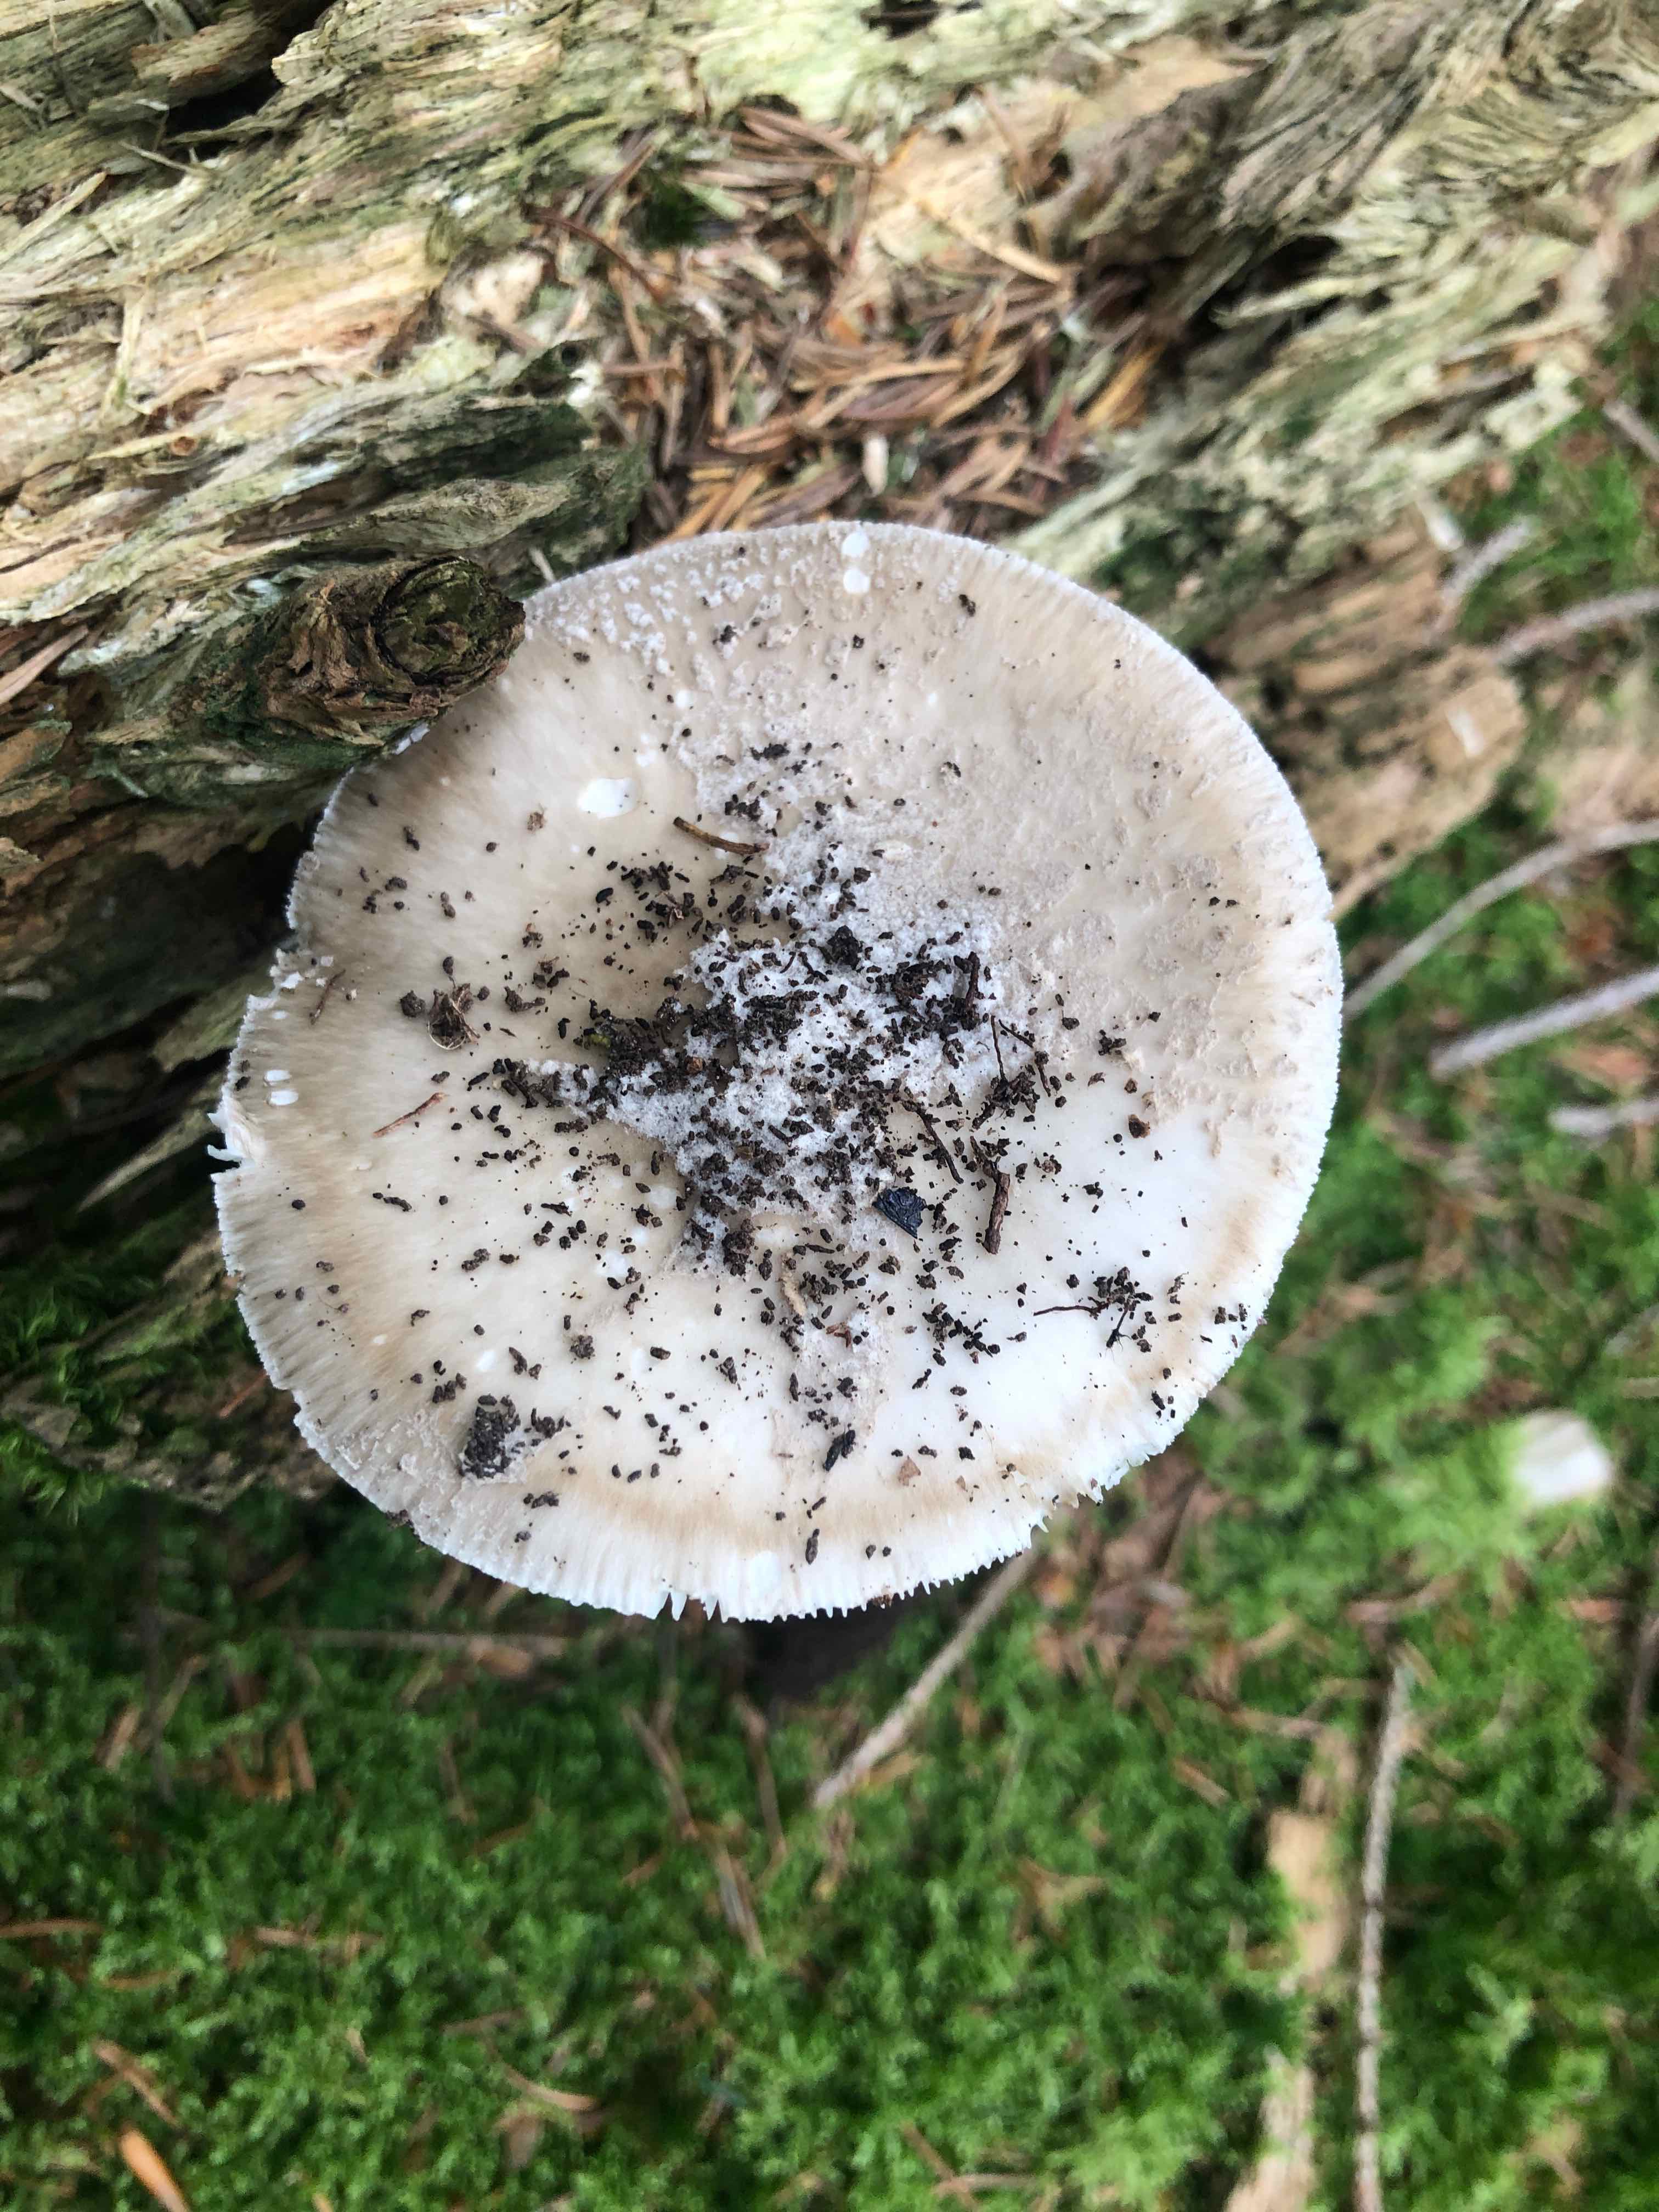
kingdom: Fungi
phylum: Basidiomycota
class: Agaricomycetes
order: Agaricales
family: Amanitaceae
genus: Amanita
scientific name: Amanita
